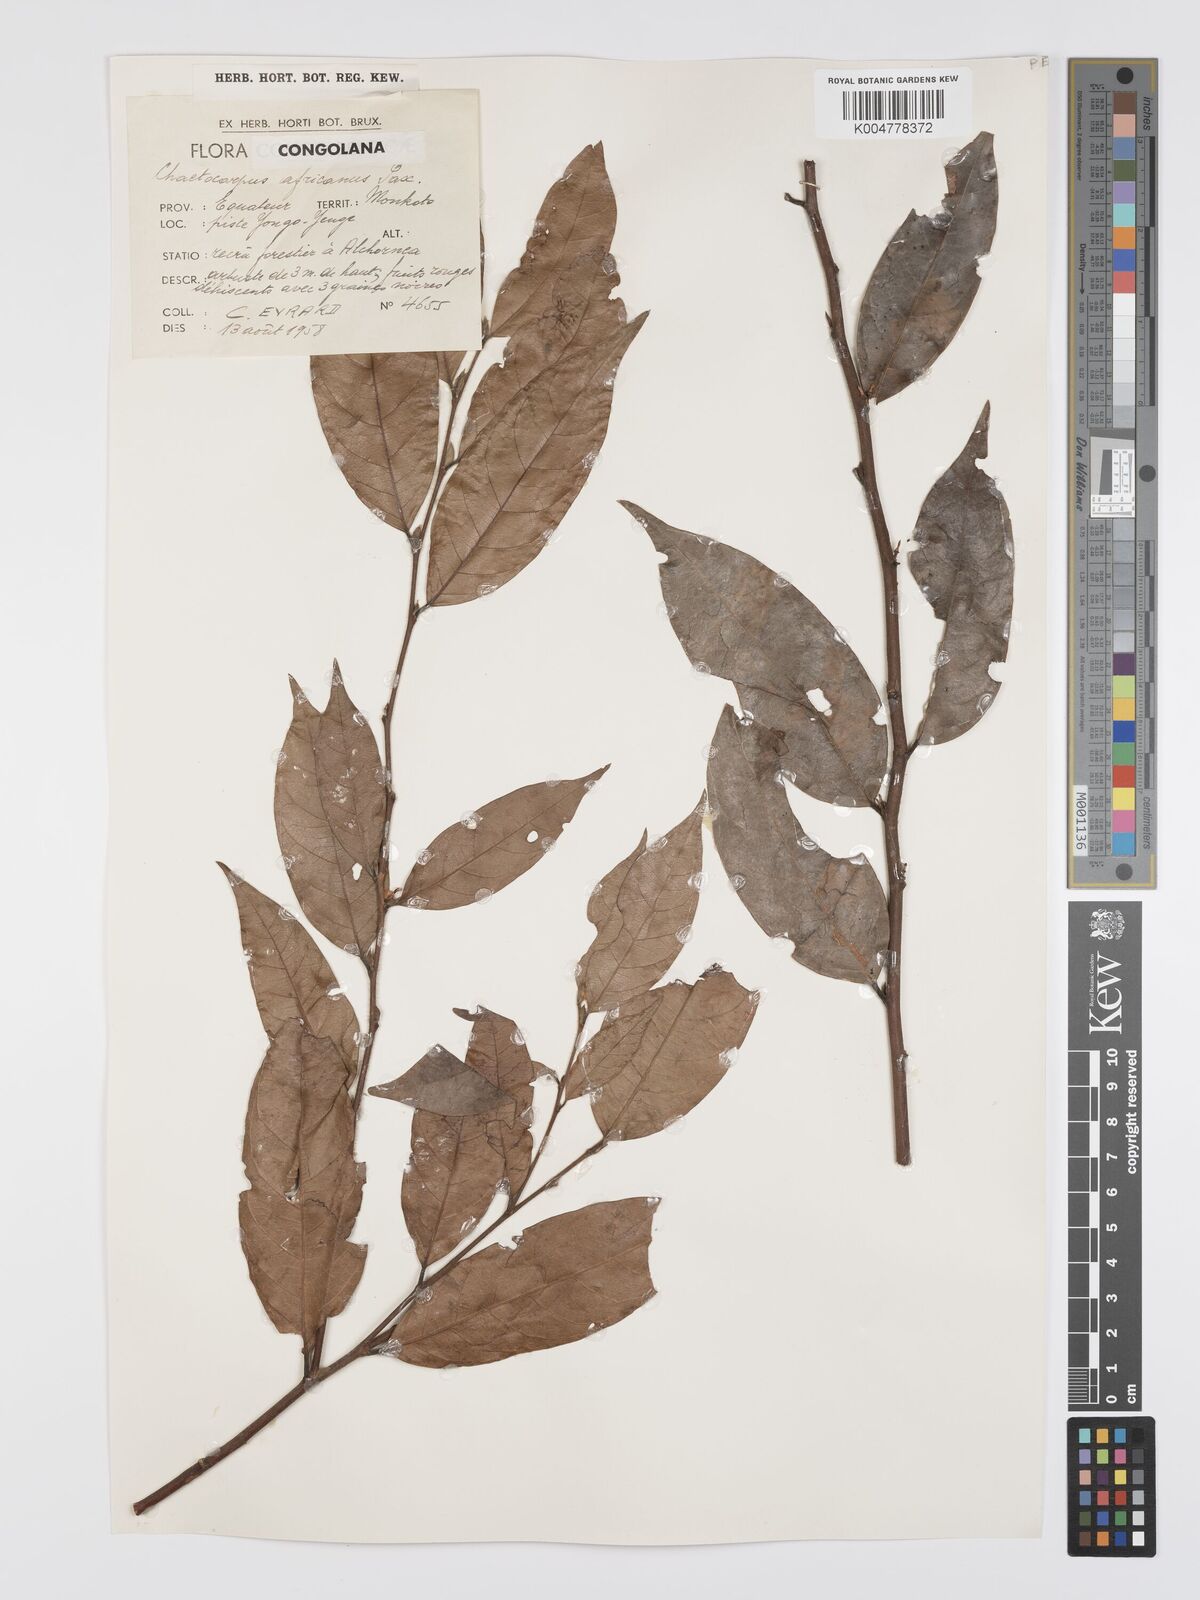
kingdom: Plantae
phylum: Tracheophyta
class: Magnoliopsida
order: Malpighiales
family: Peraceae
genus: Chaetocarpus
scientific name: Chaetocarpus africanus
